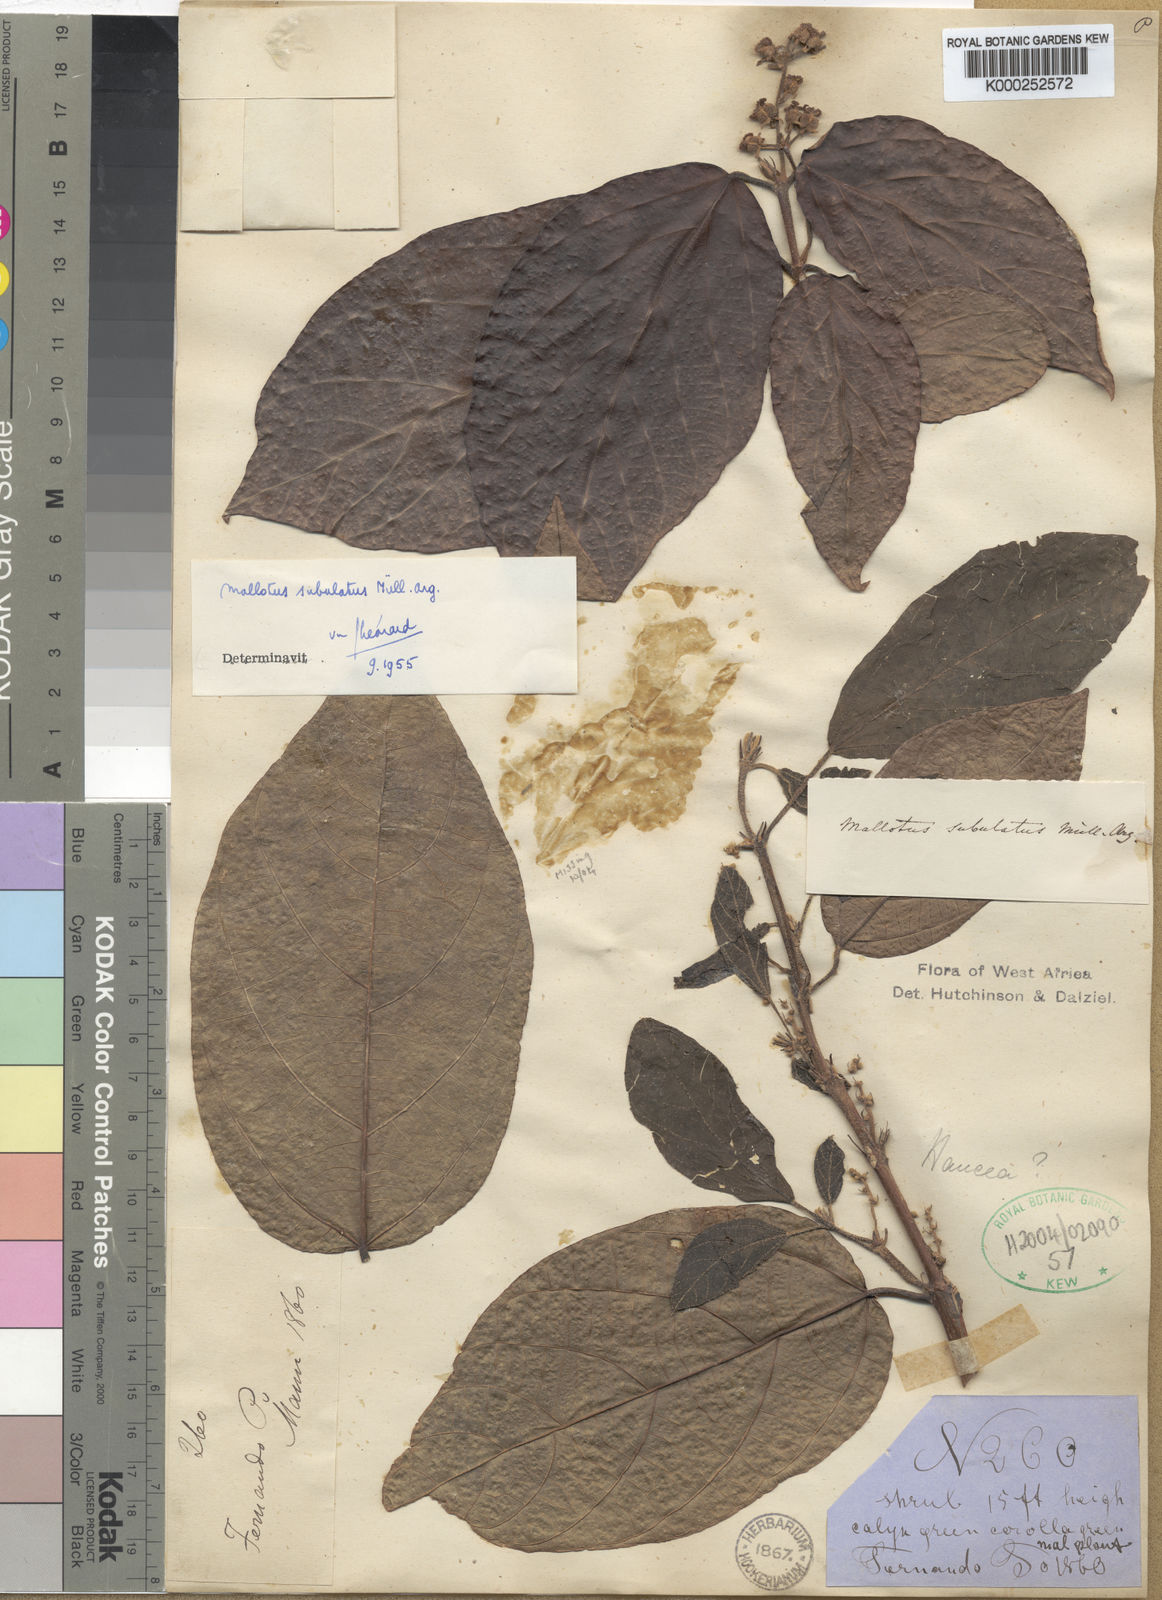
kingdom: Plantae
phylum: Tracheophyta
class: Magnoliopsida
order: Malpighiales
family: Euphorbiaceae
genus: Mallotus
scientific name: Mallotus subulatus
